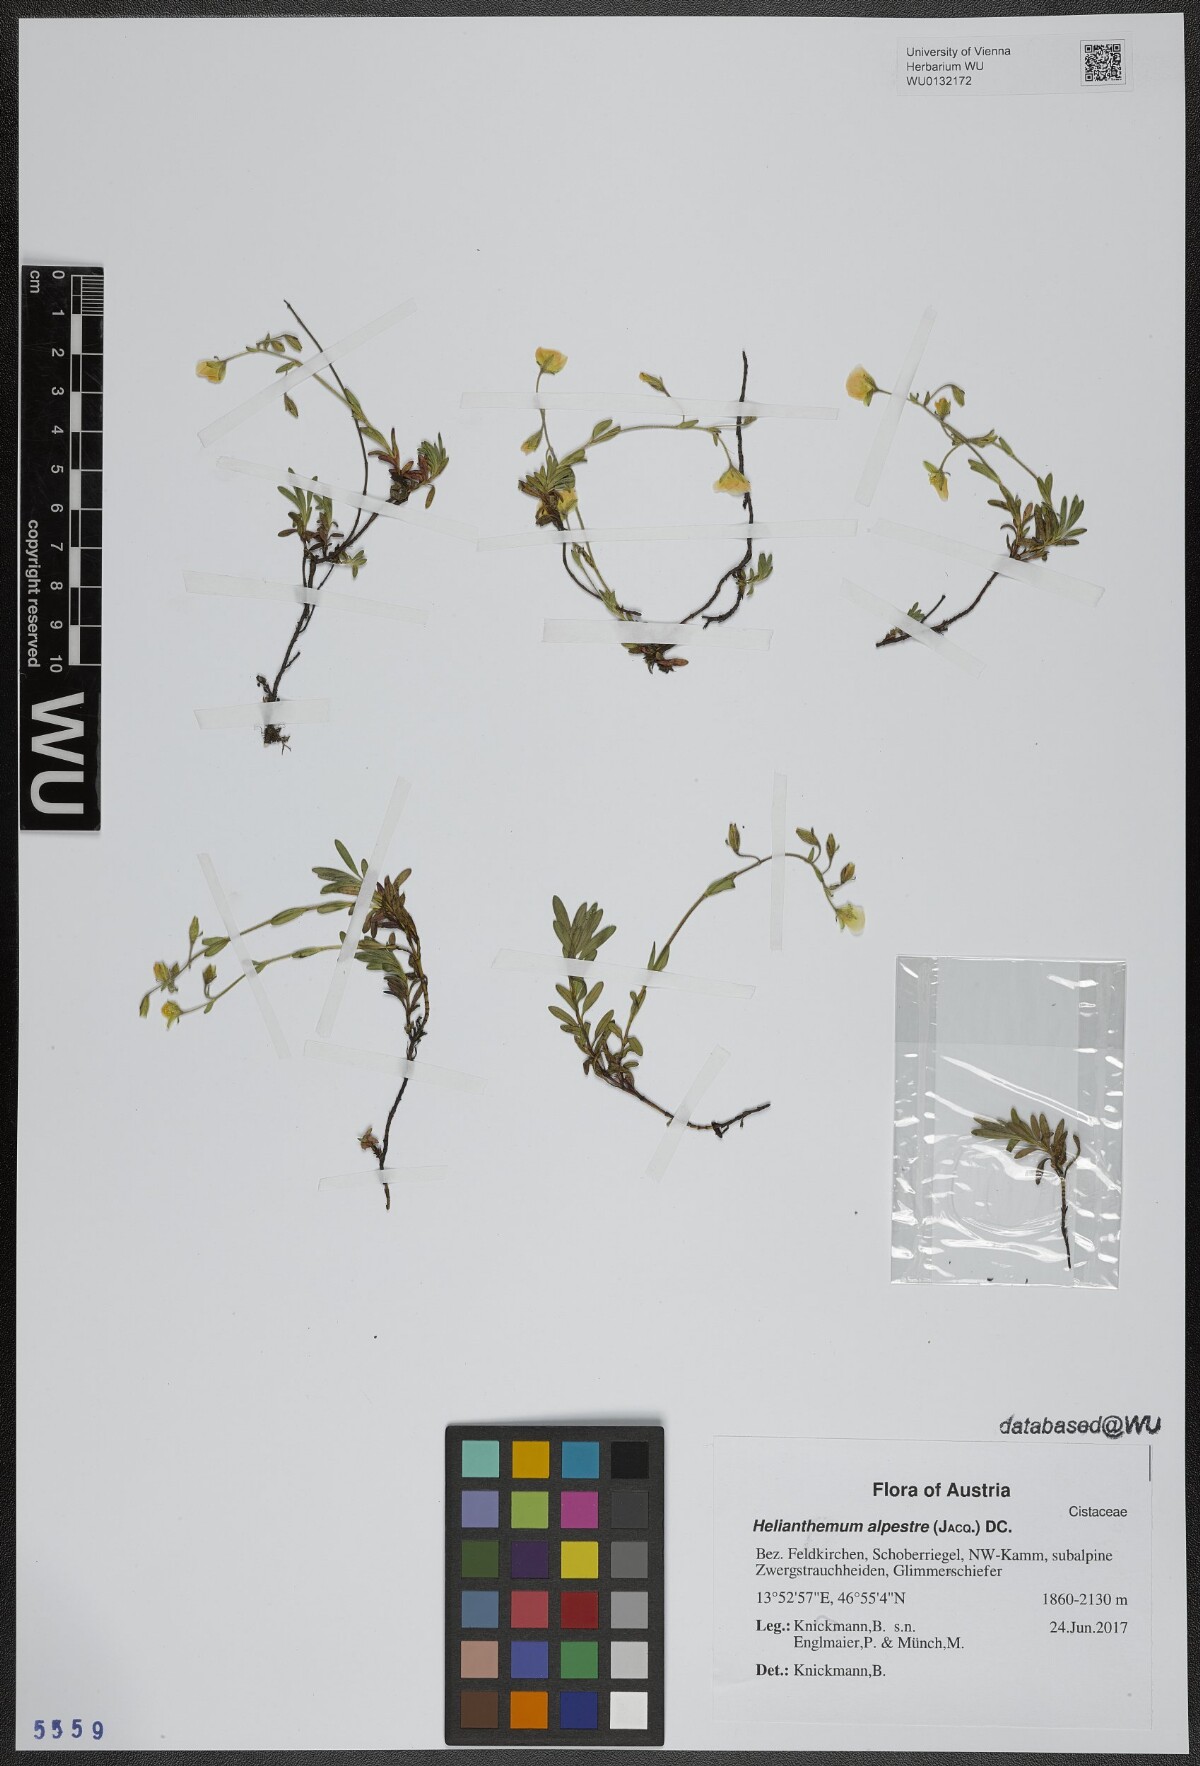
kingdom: Plantae
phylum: Tracheophyta
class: Magnoliopsida
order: Malvales
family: Cistaceae
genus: Helianthemum
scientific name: Helianthemum alpestre
